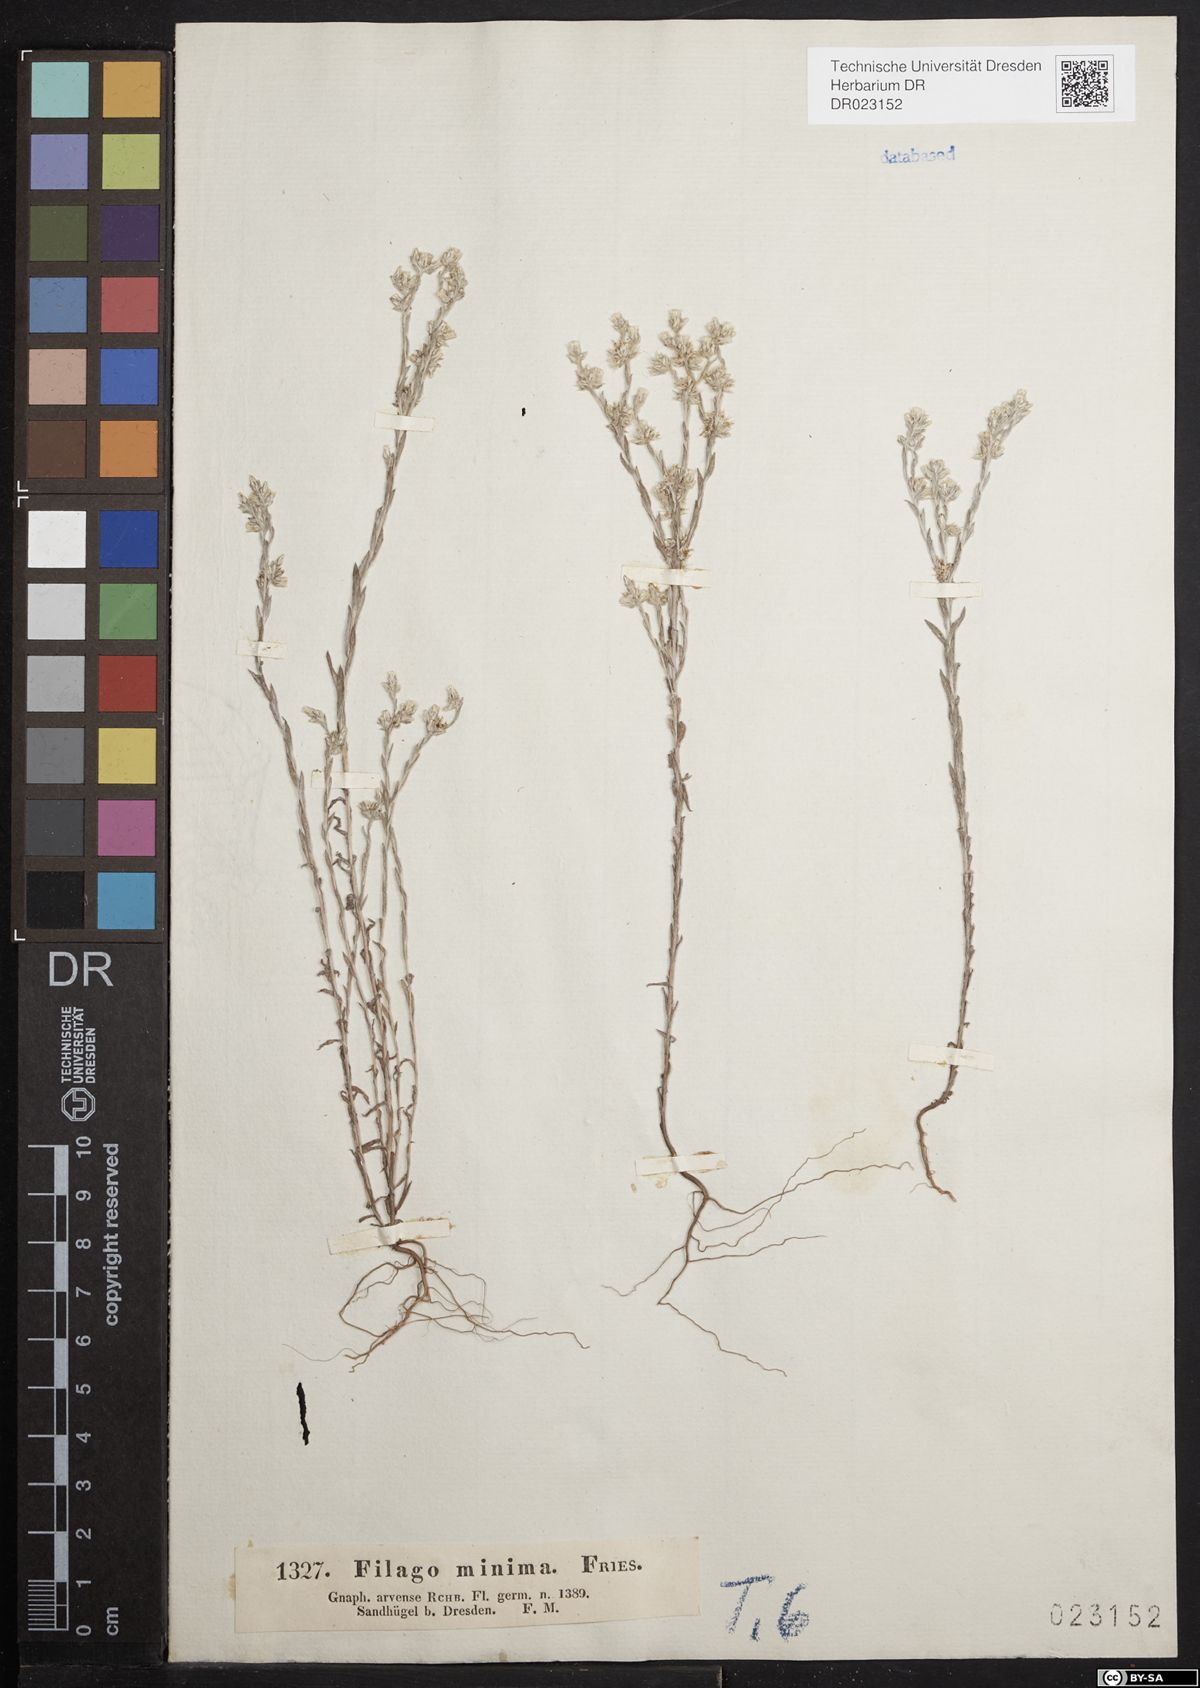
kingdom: Plantae
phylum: Tracheophyta
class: Magnoliopsida
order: Asterales
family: Asteraceae
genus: Logfia
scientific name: Logfia minima
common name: Little cottonrose
